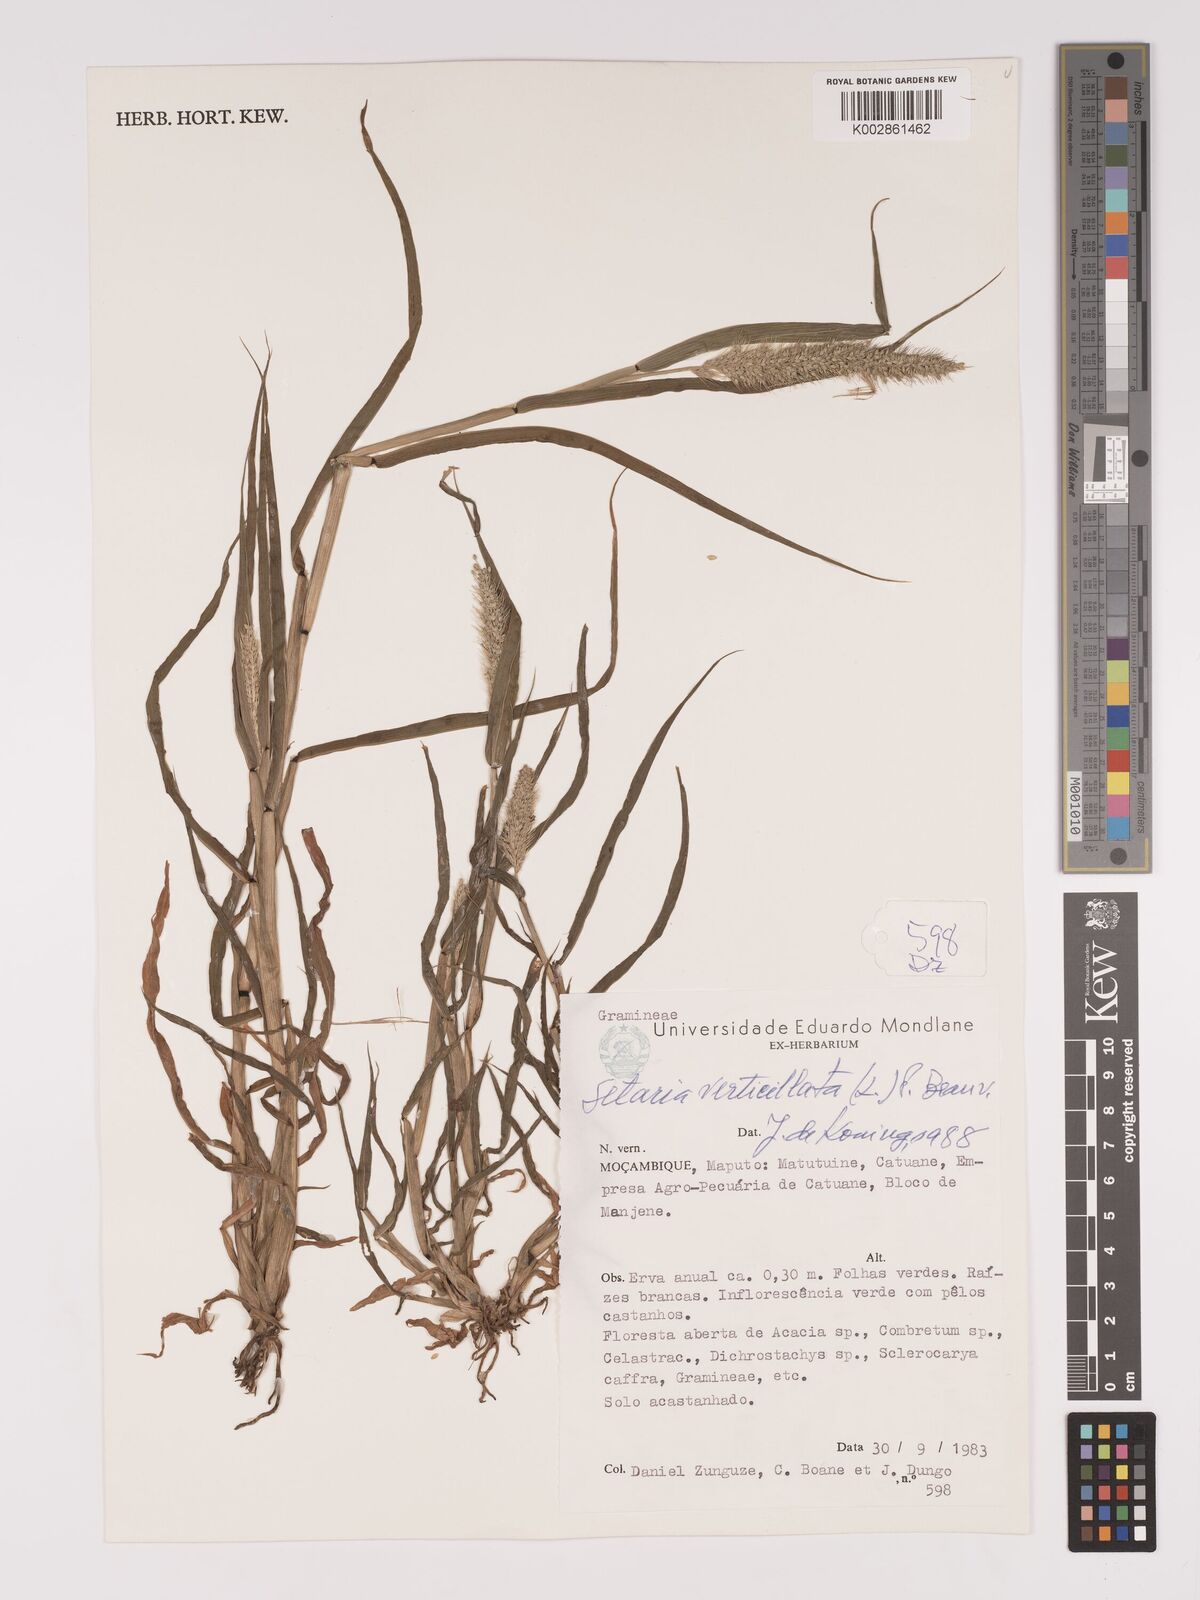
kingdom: Plantae
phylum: Tracheophyta
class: Liliopsida
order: Poales
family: Poaceae
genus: Setaria
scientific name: Setaria verticillata
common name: Hooked bristlegrass
